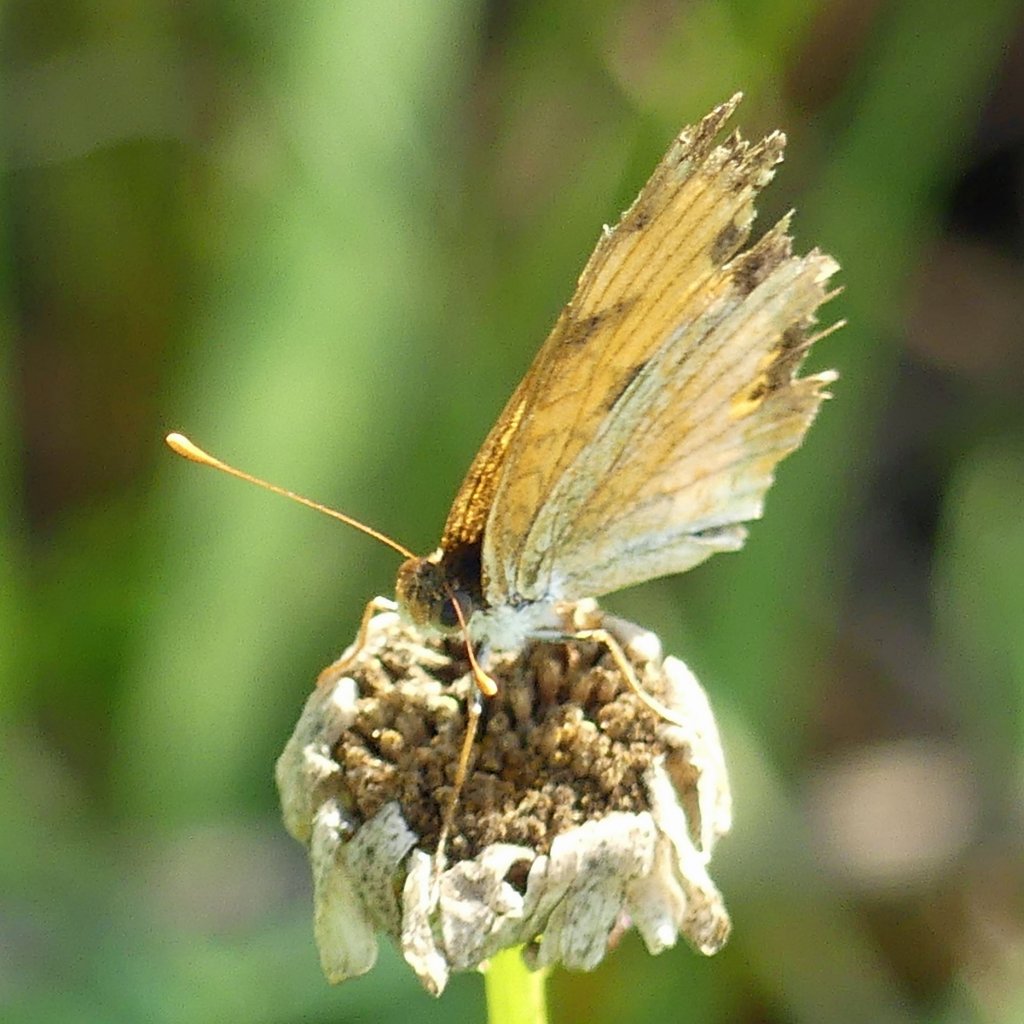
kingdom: Animalia
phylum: Arthropoda
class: Insecta
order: Lepidoptera
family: Nymphalidae
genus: Phyciodes
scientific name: Phyciodes tharos
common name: Northern Crescent
